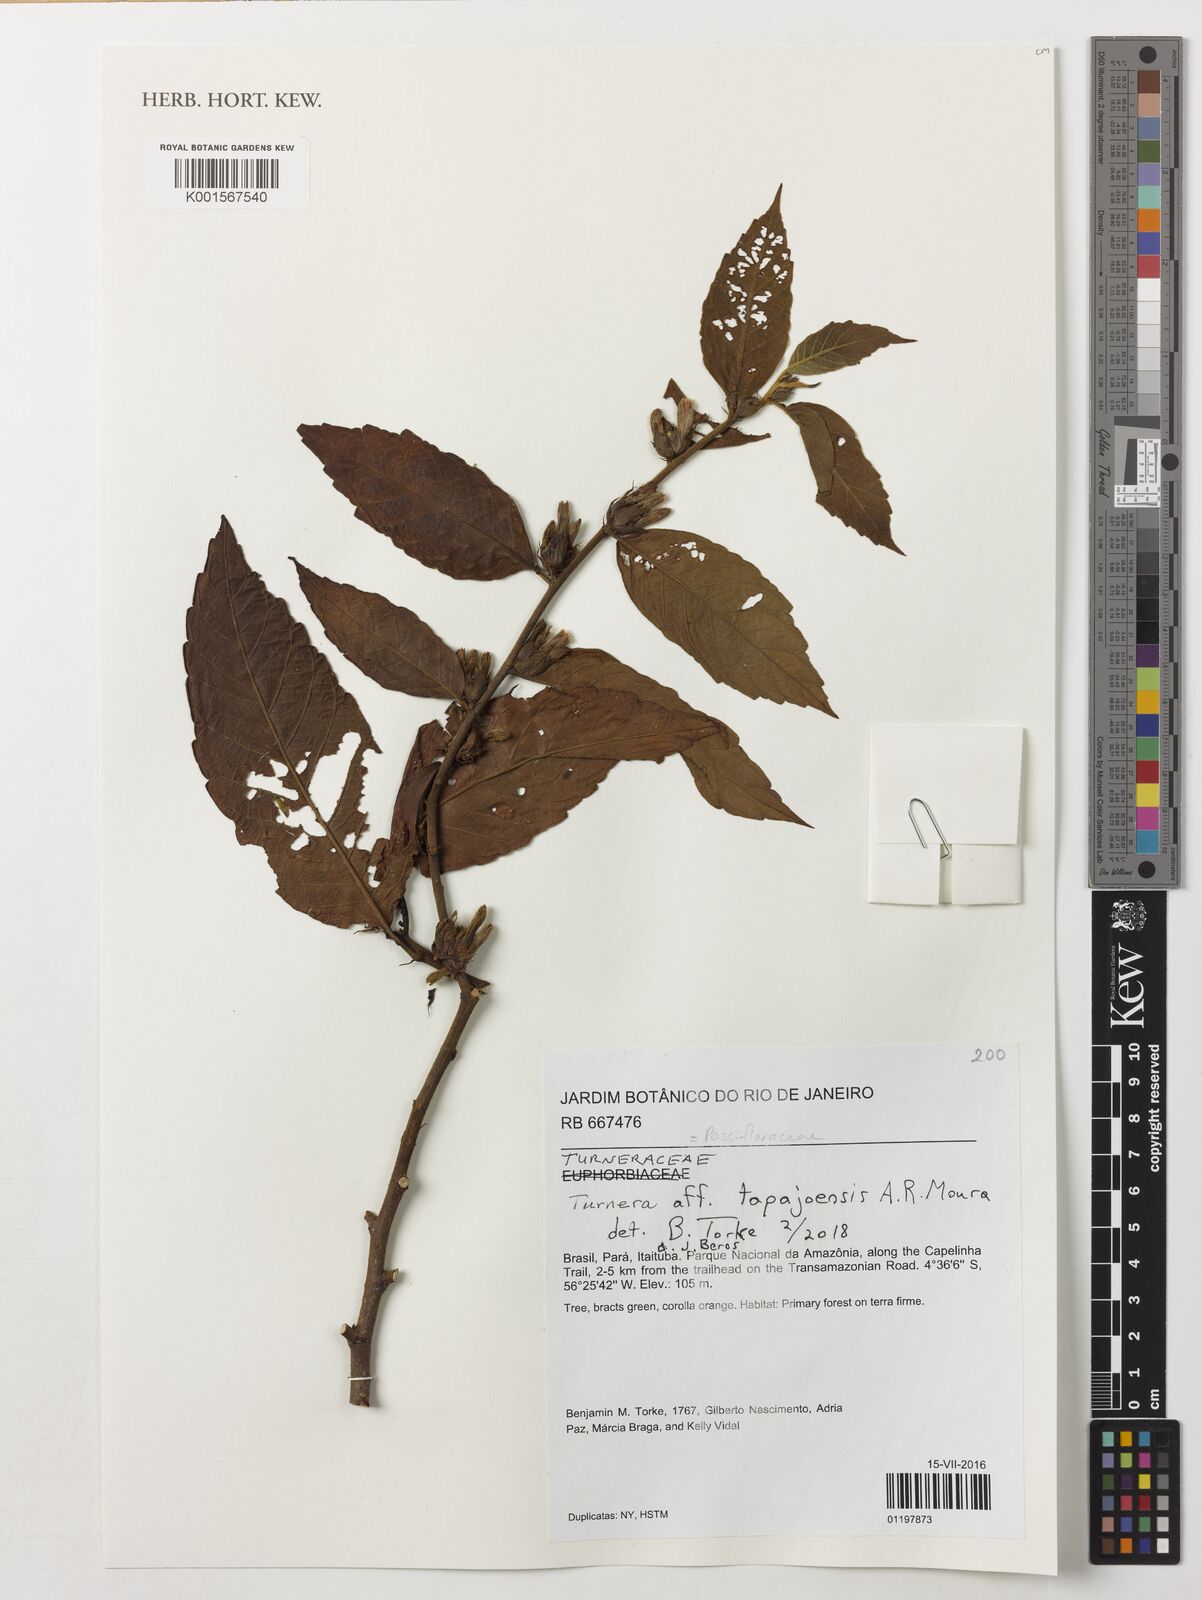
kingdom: Plantae
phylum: Tracheophyta
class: Magnoliopsida
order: Malpighiales
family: Turneraceae
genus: Turnera
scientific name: Turnera tapajoensis
